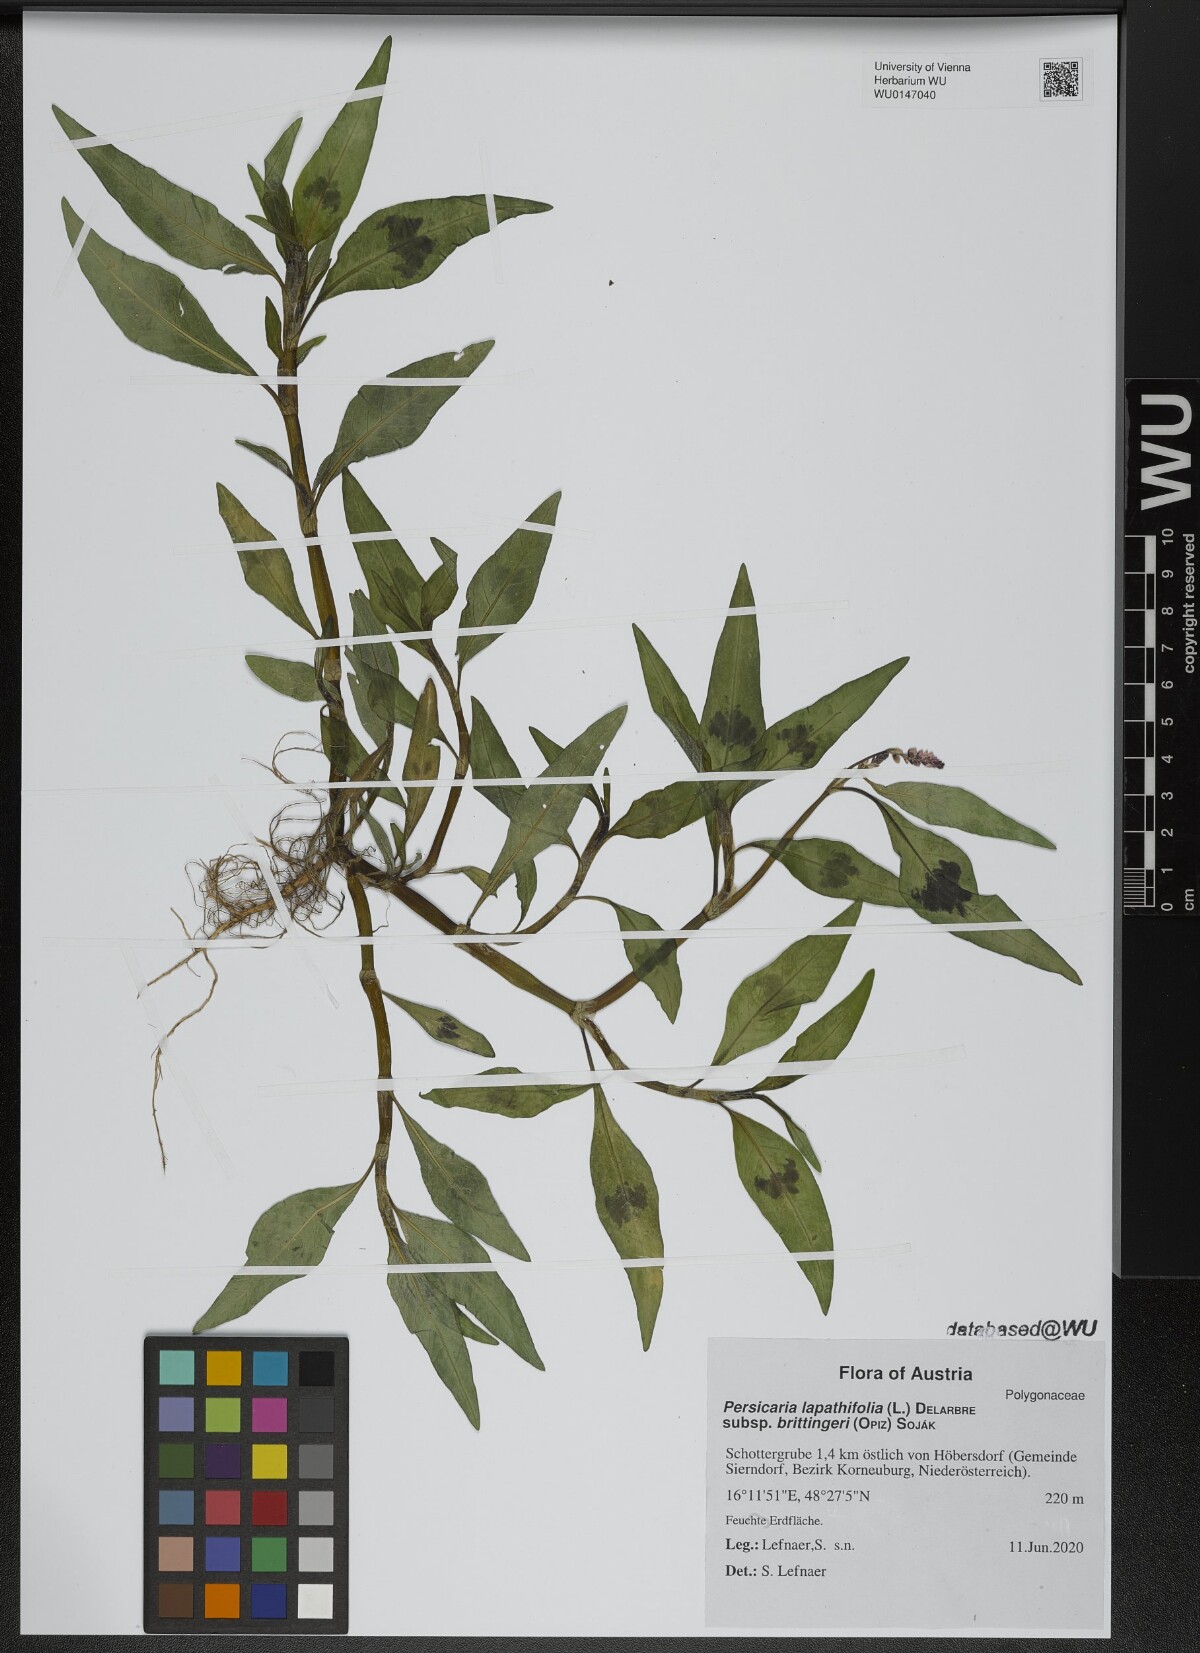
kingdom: Plantae
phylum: Tracheophyta
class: Magnoliopsida
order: Caryophyllales
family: Polygonaceae
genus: Persicaria
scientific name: Persicaria lapathifolia
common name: Curlytop knotweed
